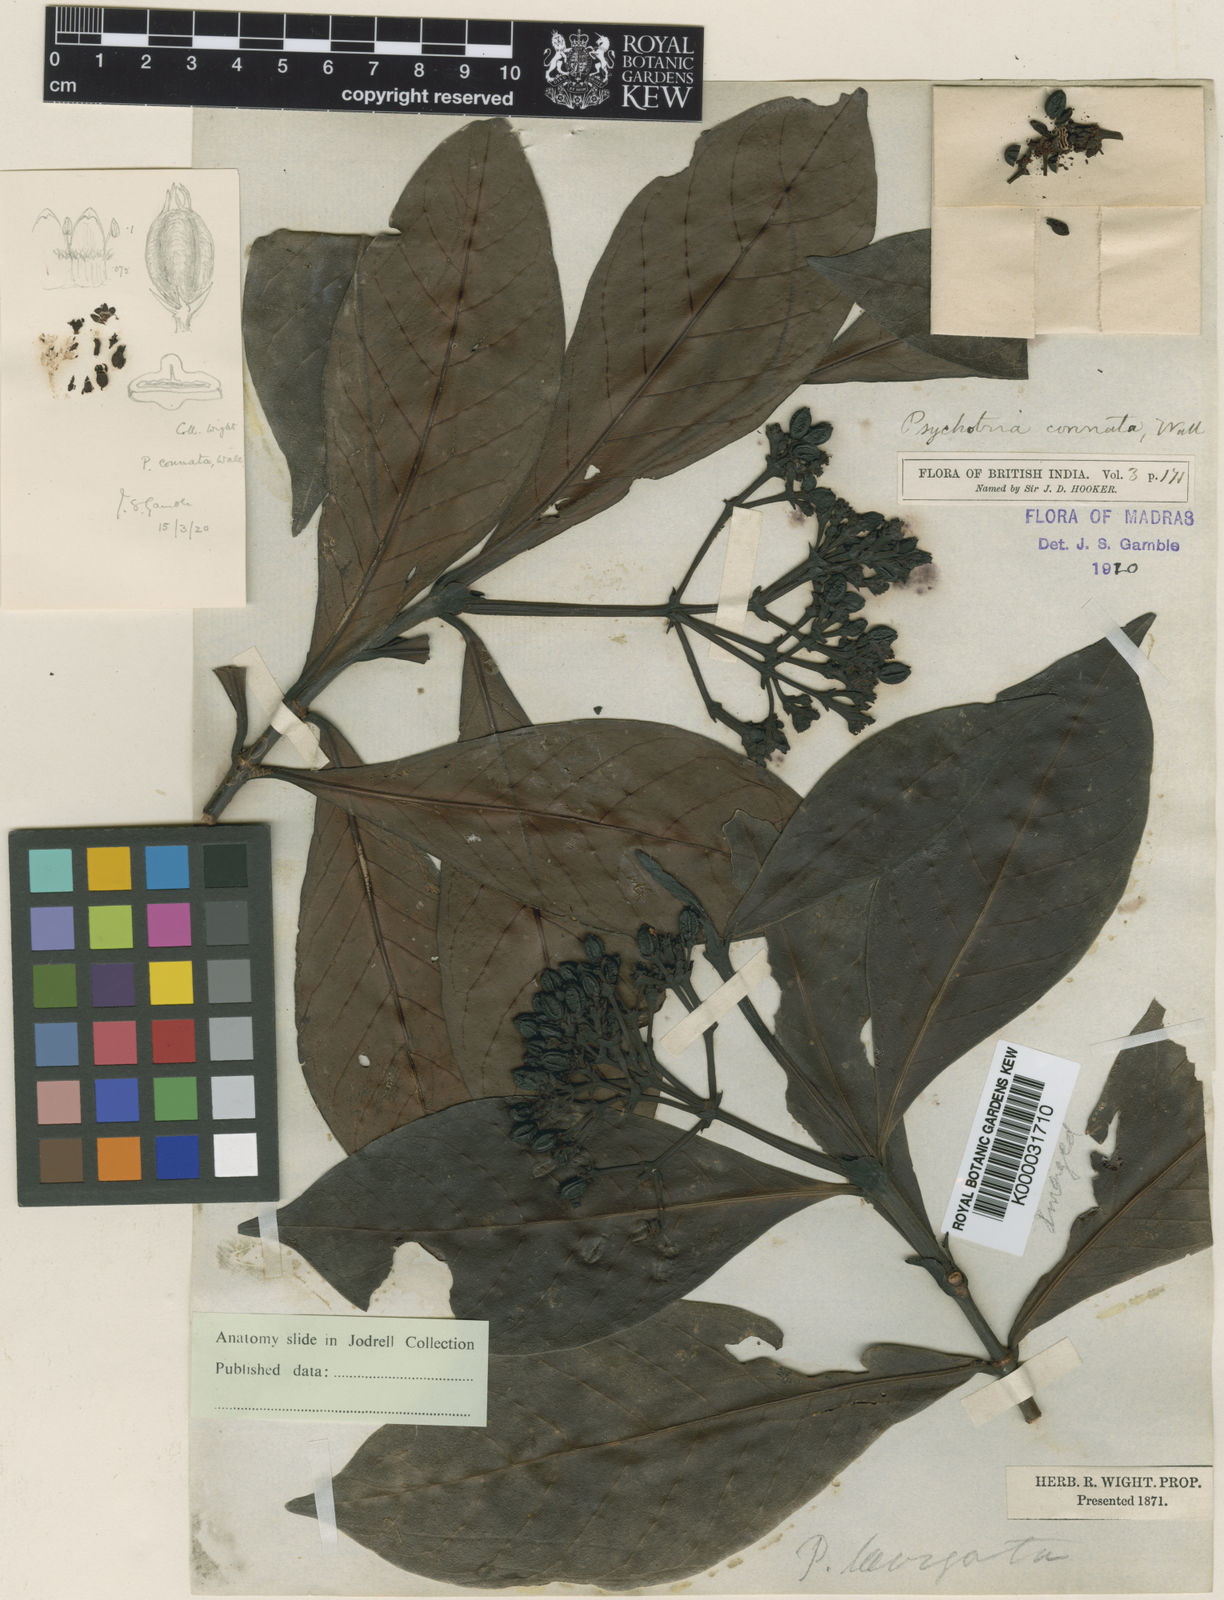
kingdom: Plantae
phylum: Tracheophyta
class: Magnoliopsida
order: Gentianales
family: Rubiaceae
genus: Psychotria
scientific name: Psychotria connata
